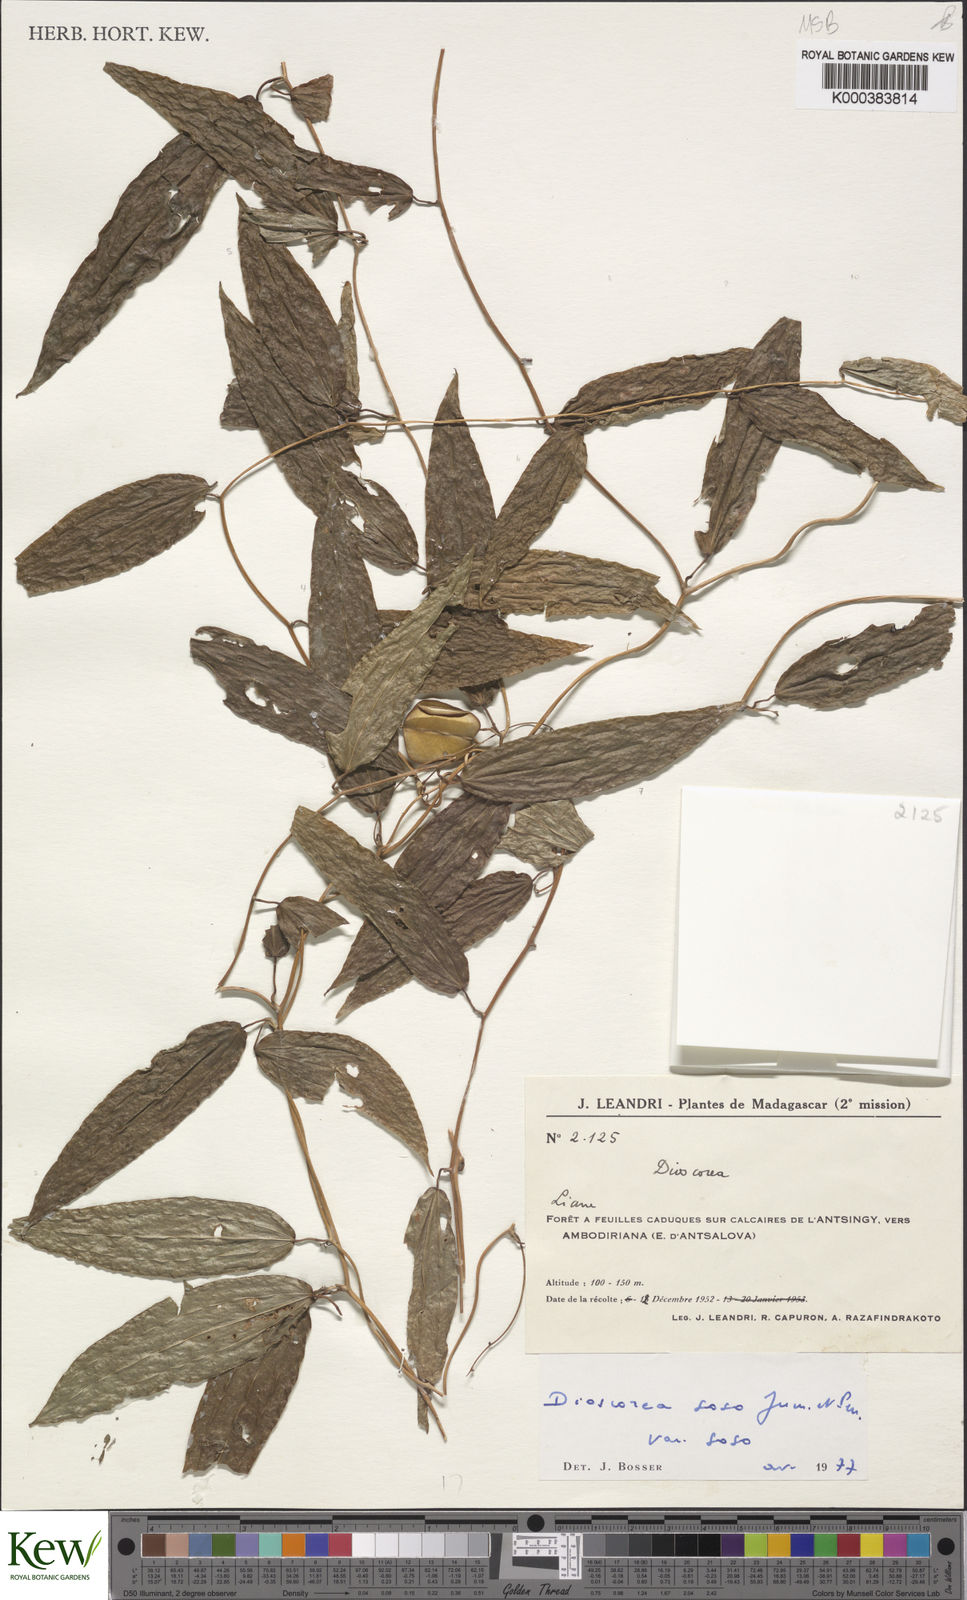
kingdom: Plantae
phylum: Tracheophyta
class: Liliopsida
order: Dioscoreales
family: Dioscoreaceae
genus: Dioscorea
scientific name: Dioscorea soso
